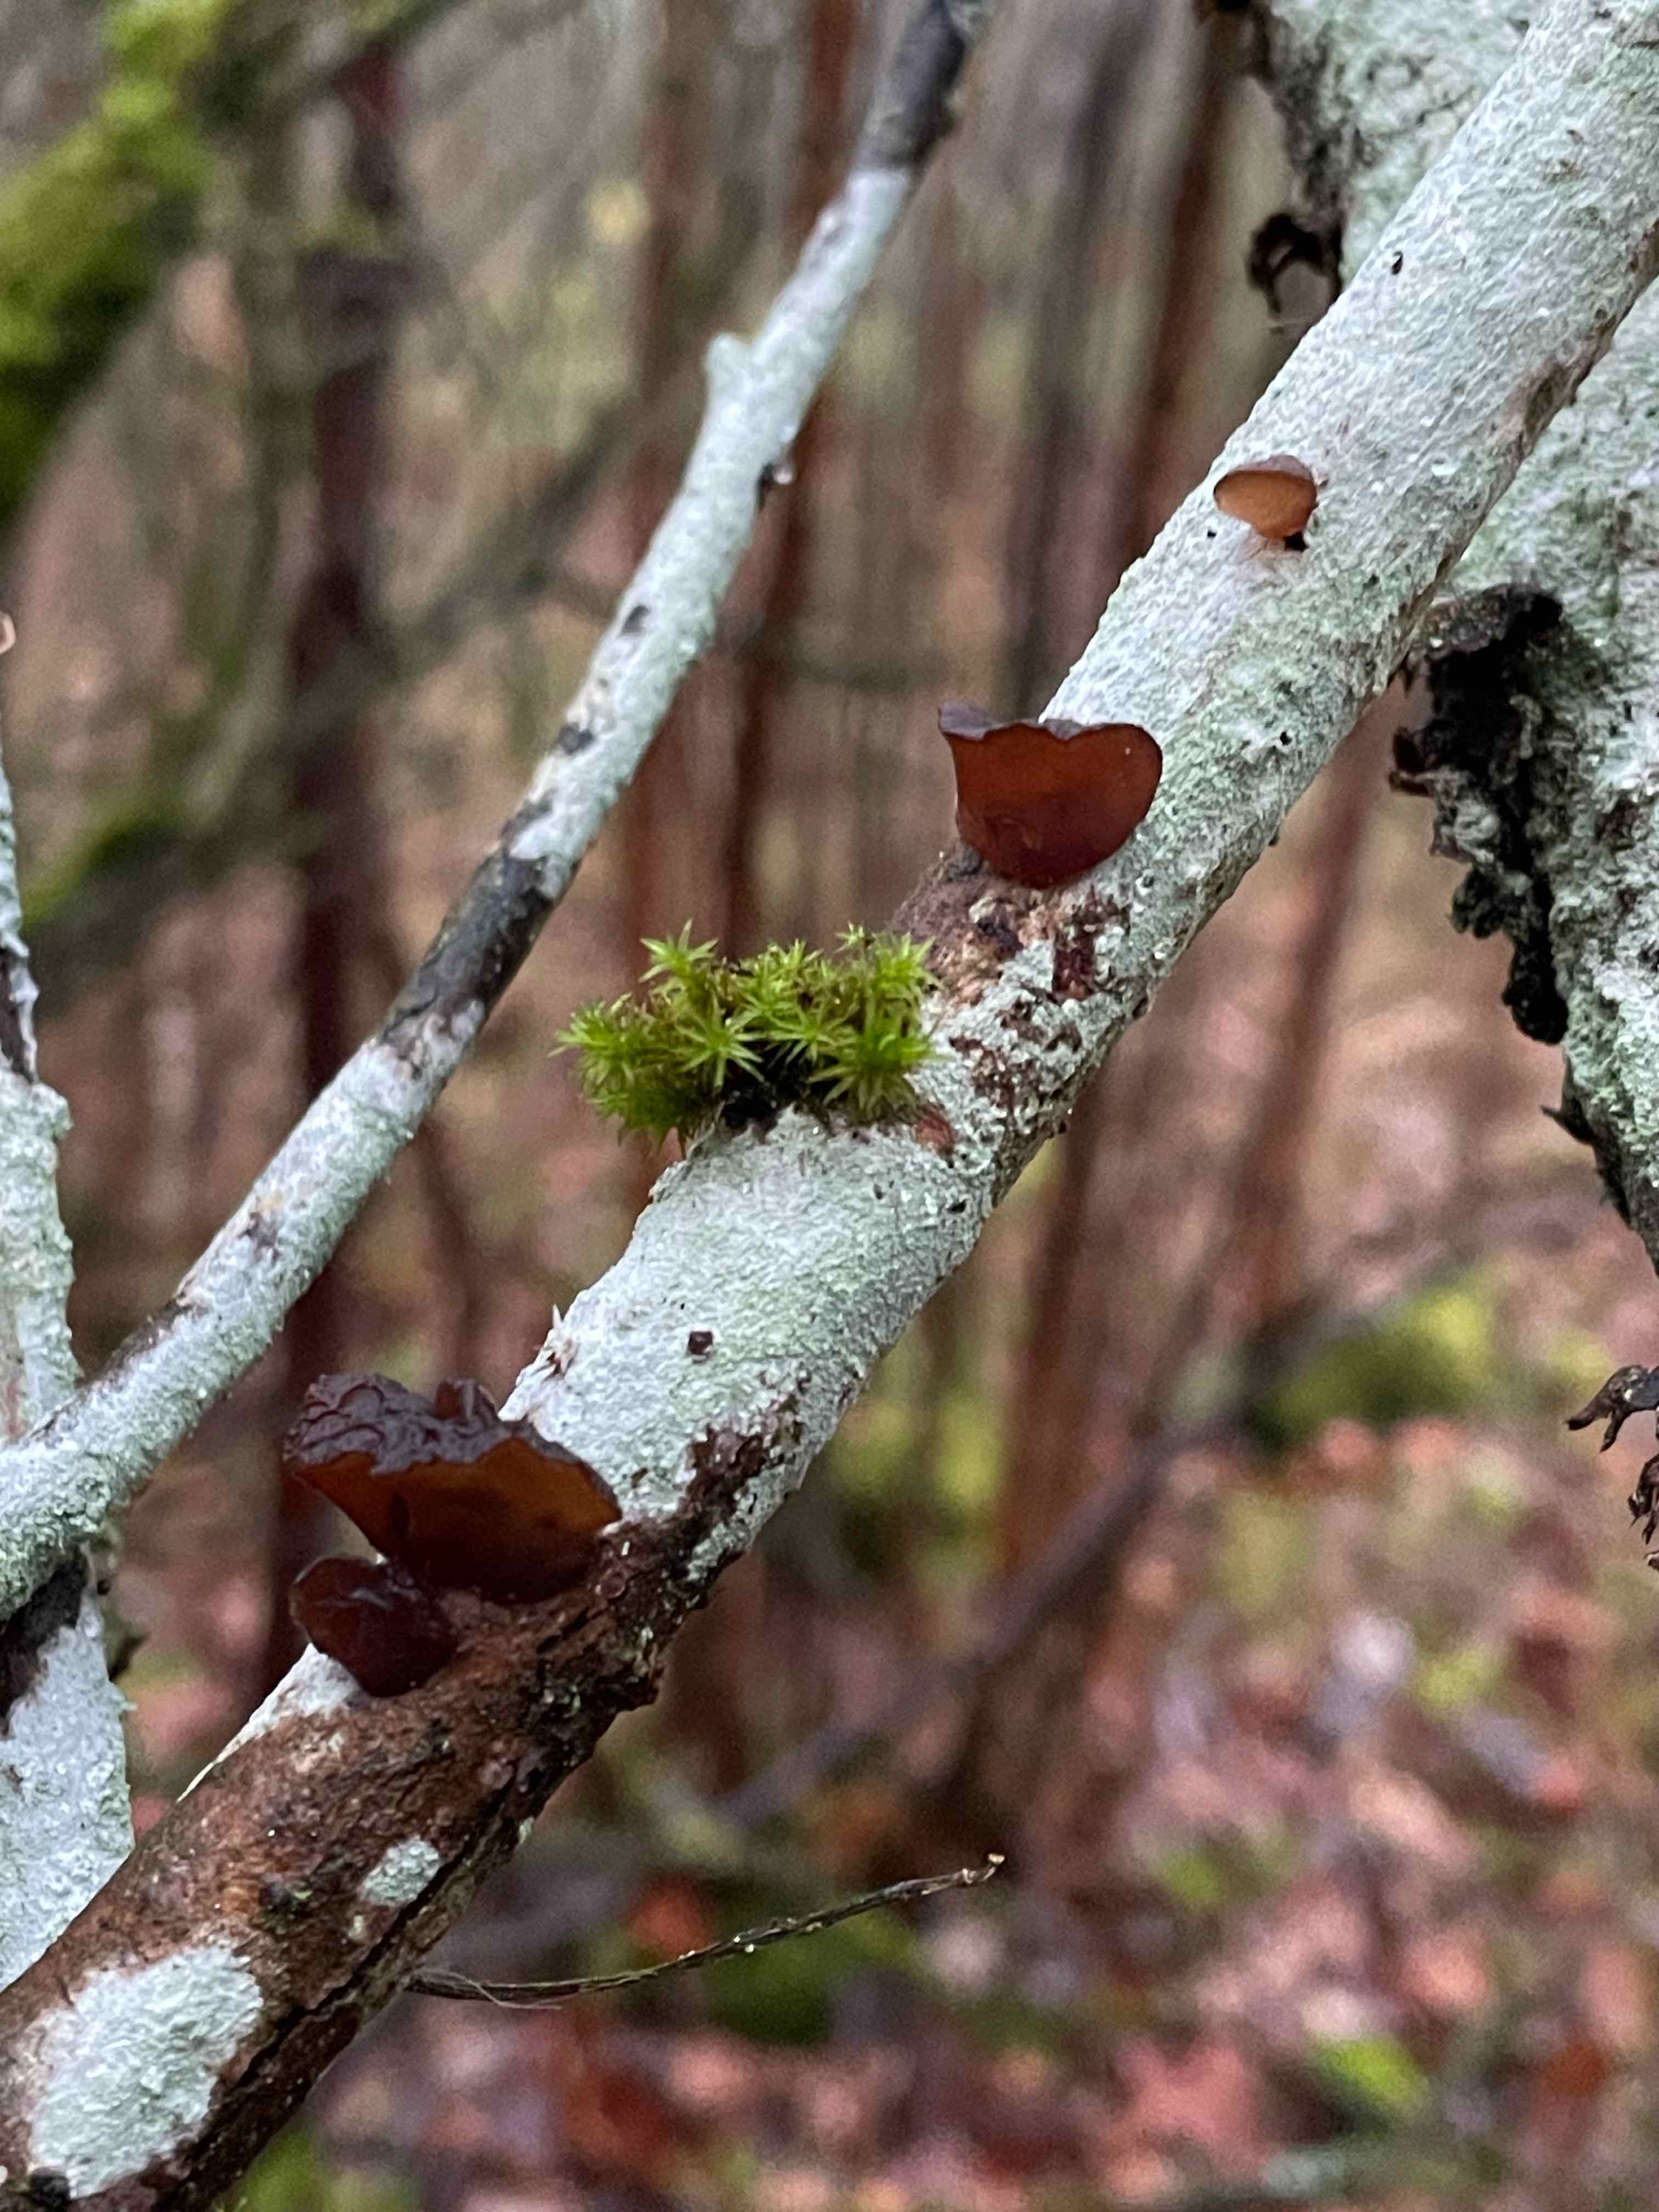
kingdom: Fungi
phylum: Basidiomycota
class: Agaricomycetes
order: Auriculariales
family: Auriculariaceae
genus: Exidia
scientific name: Exidia recisa
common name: pile-bævretop
